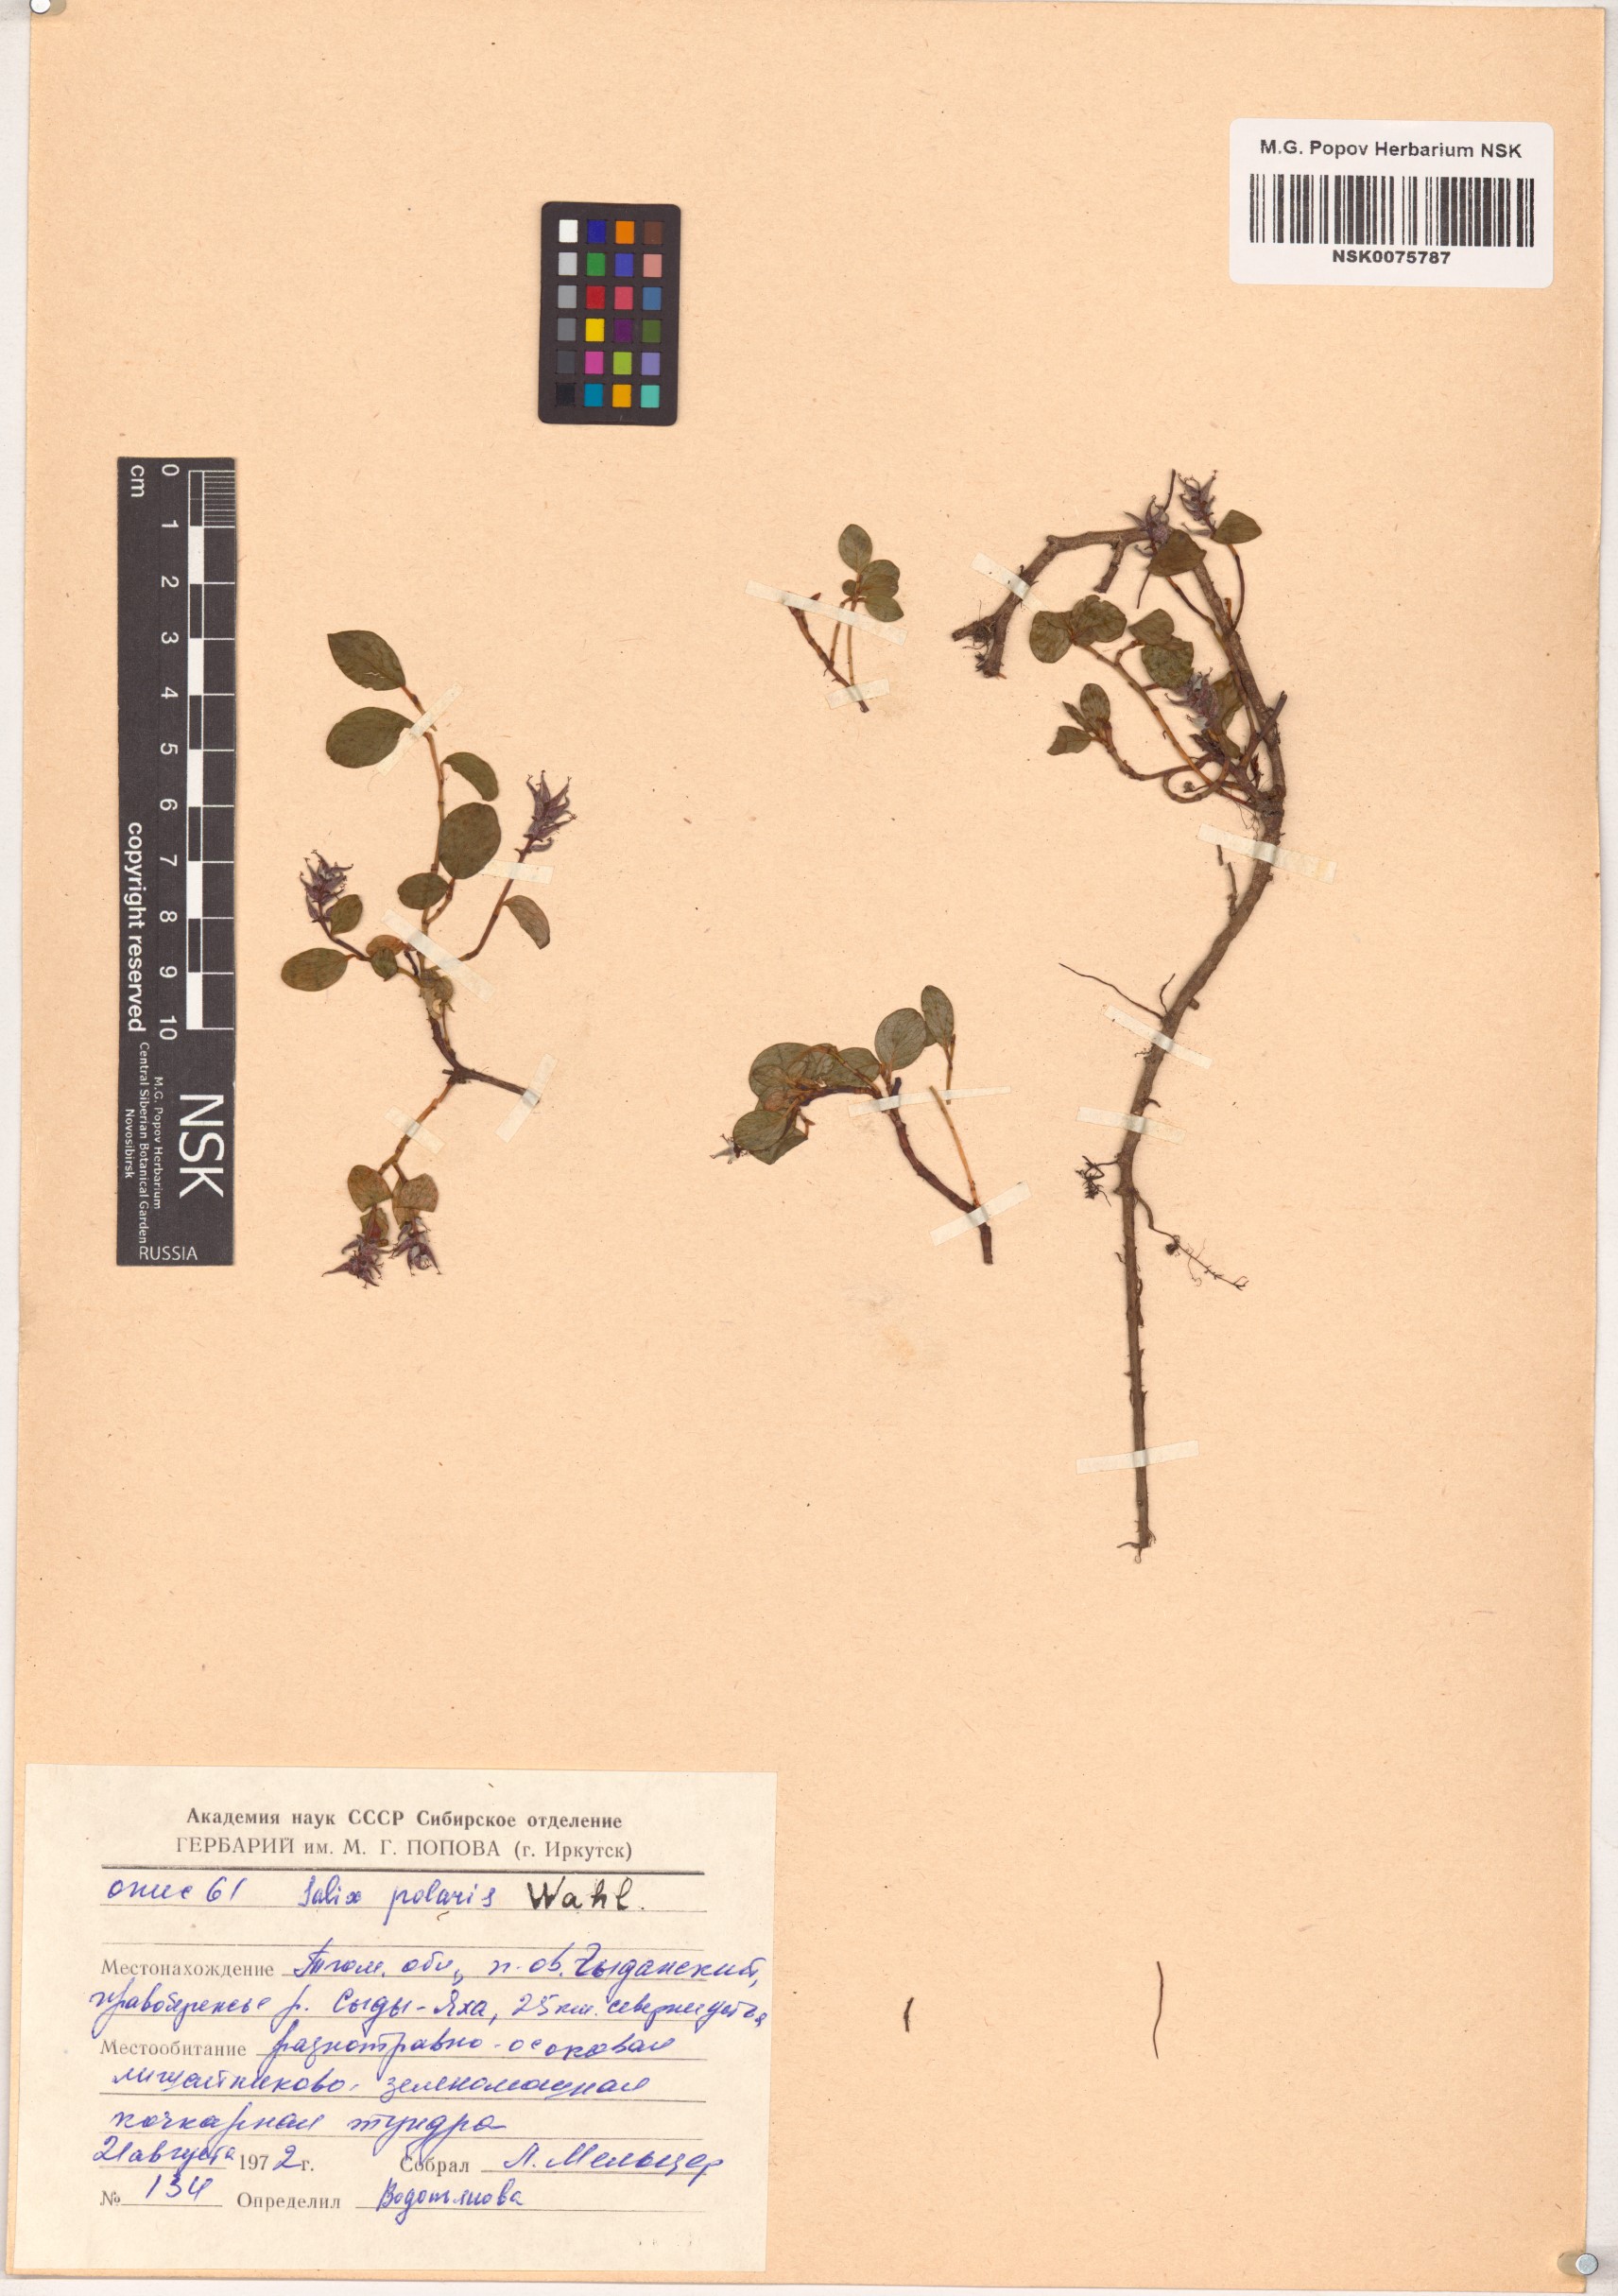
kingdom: Plantae
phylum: Tracheophyta
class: Magnoliopsida
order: Malpighiales
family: Salicaceae
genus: Salix
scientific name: Salix polaris
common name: Polar willow
